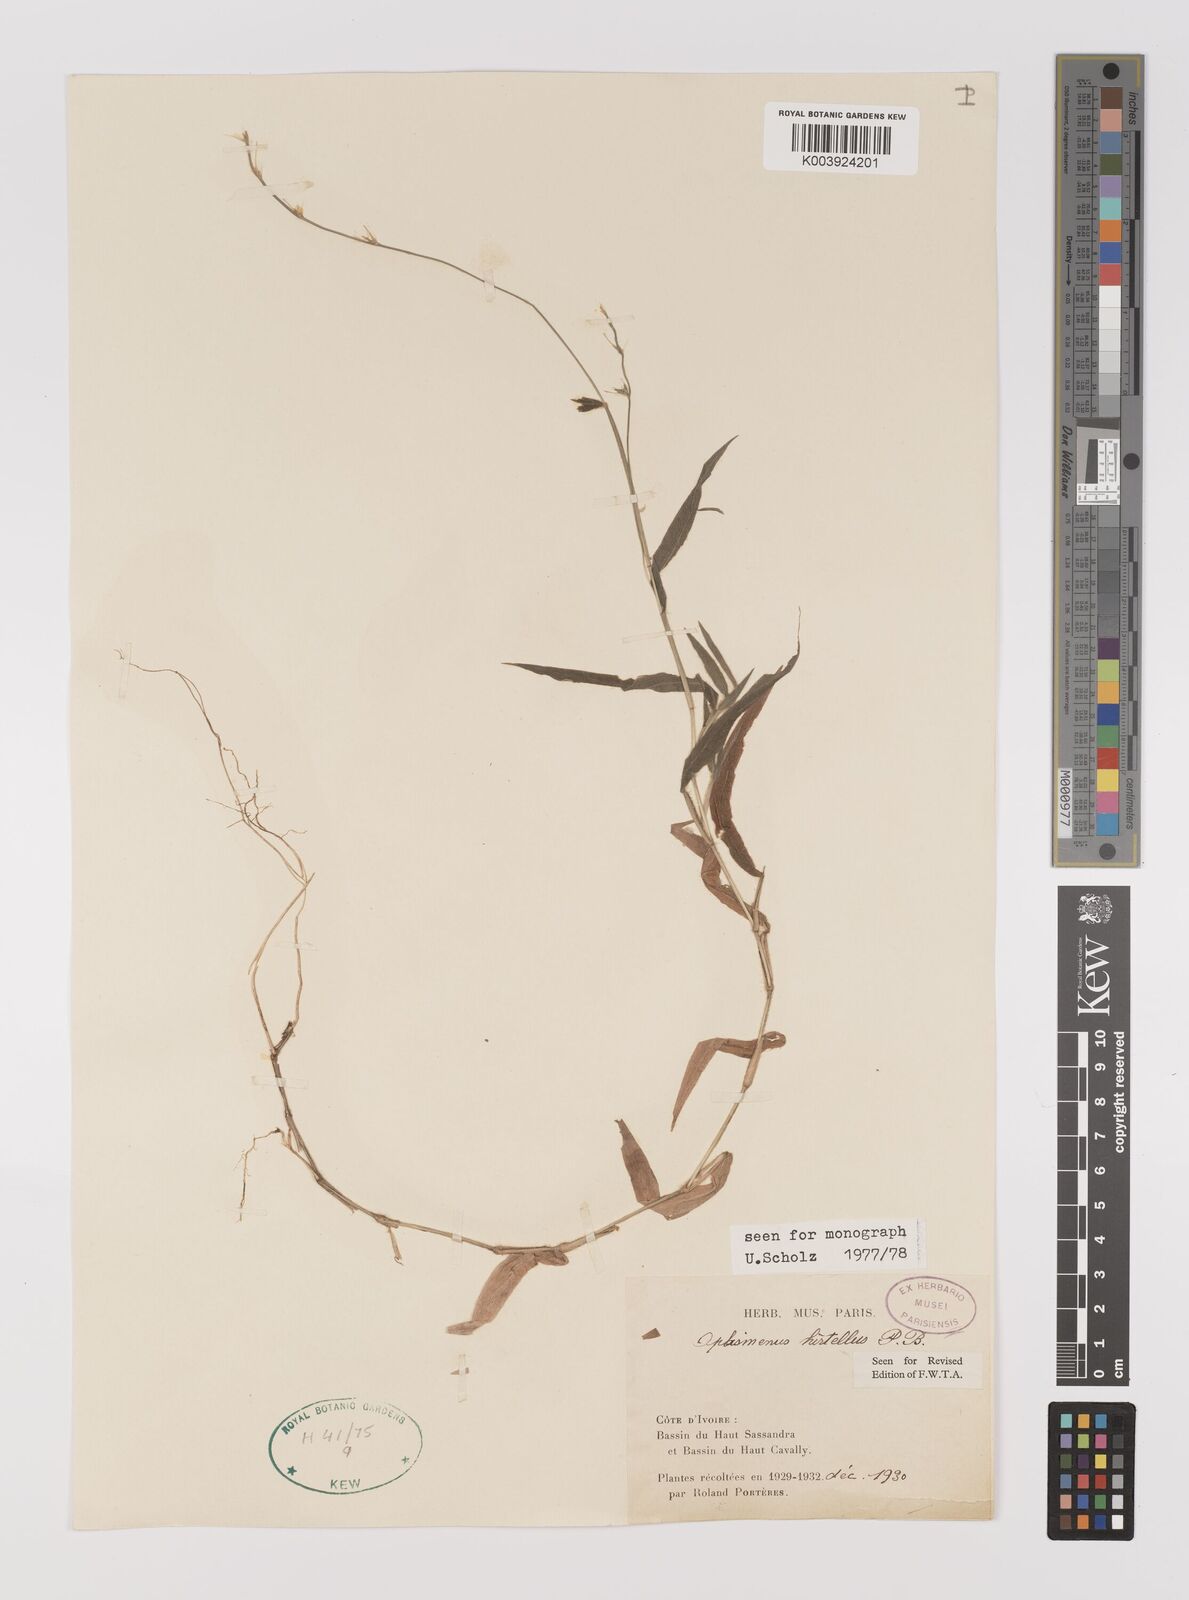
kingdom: Plantae
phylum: Tracheophyta
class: Liliopsida
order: Poales
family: Poaceae
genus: Oplismenus
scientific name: Oplismenus hirtellus
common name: Basketgrass
